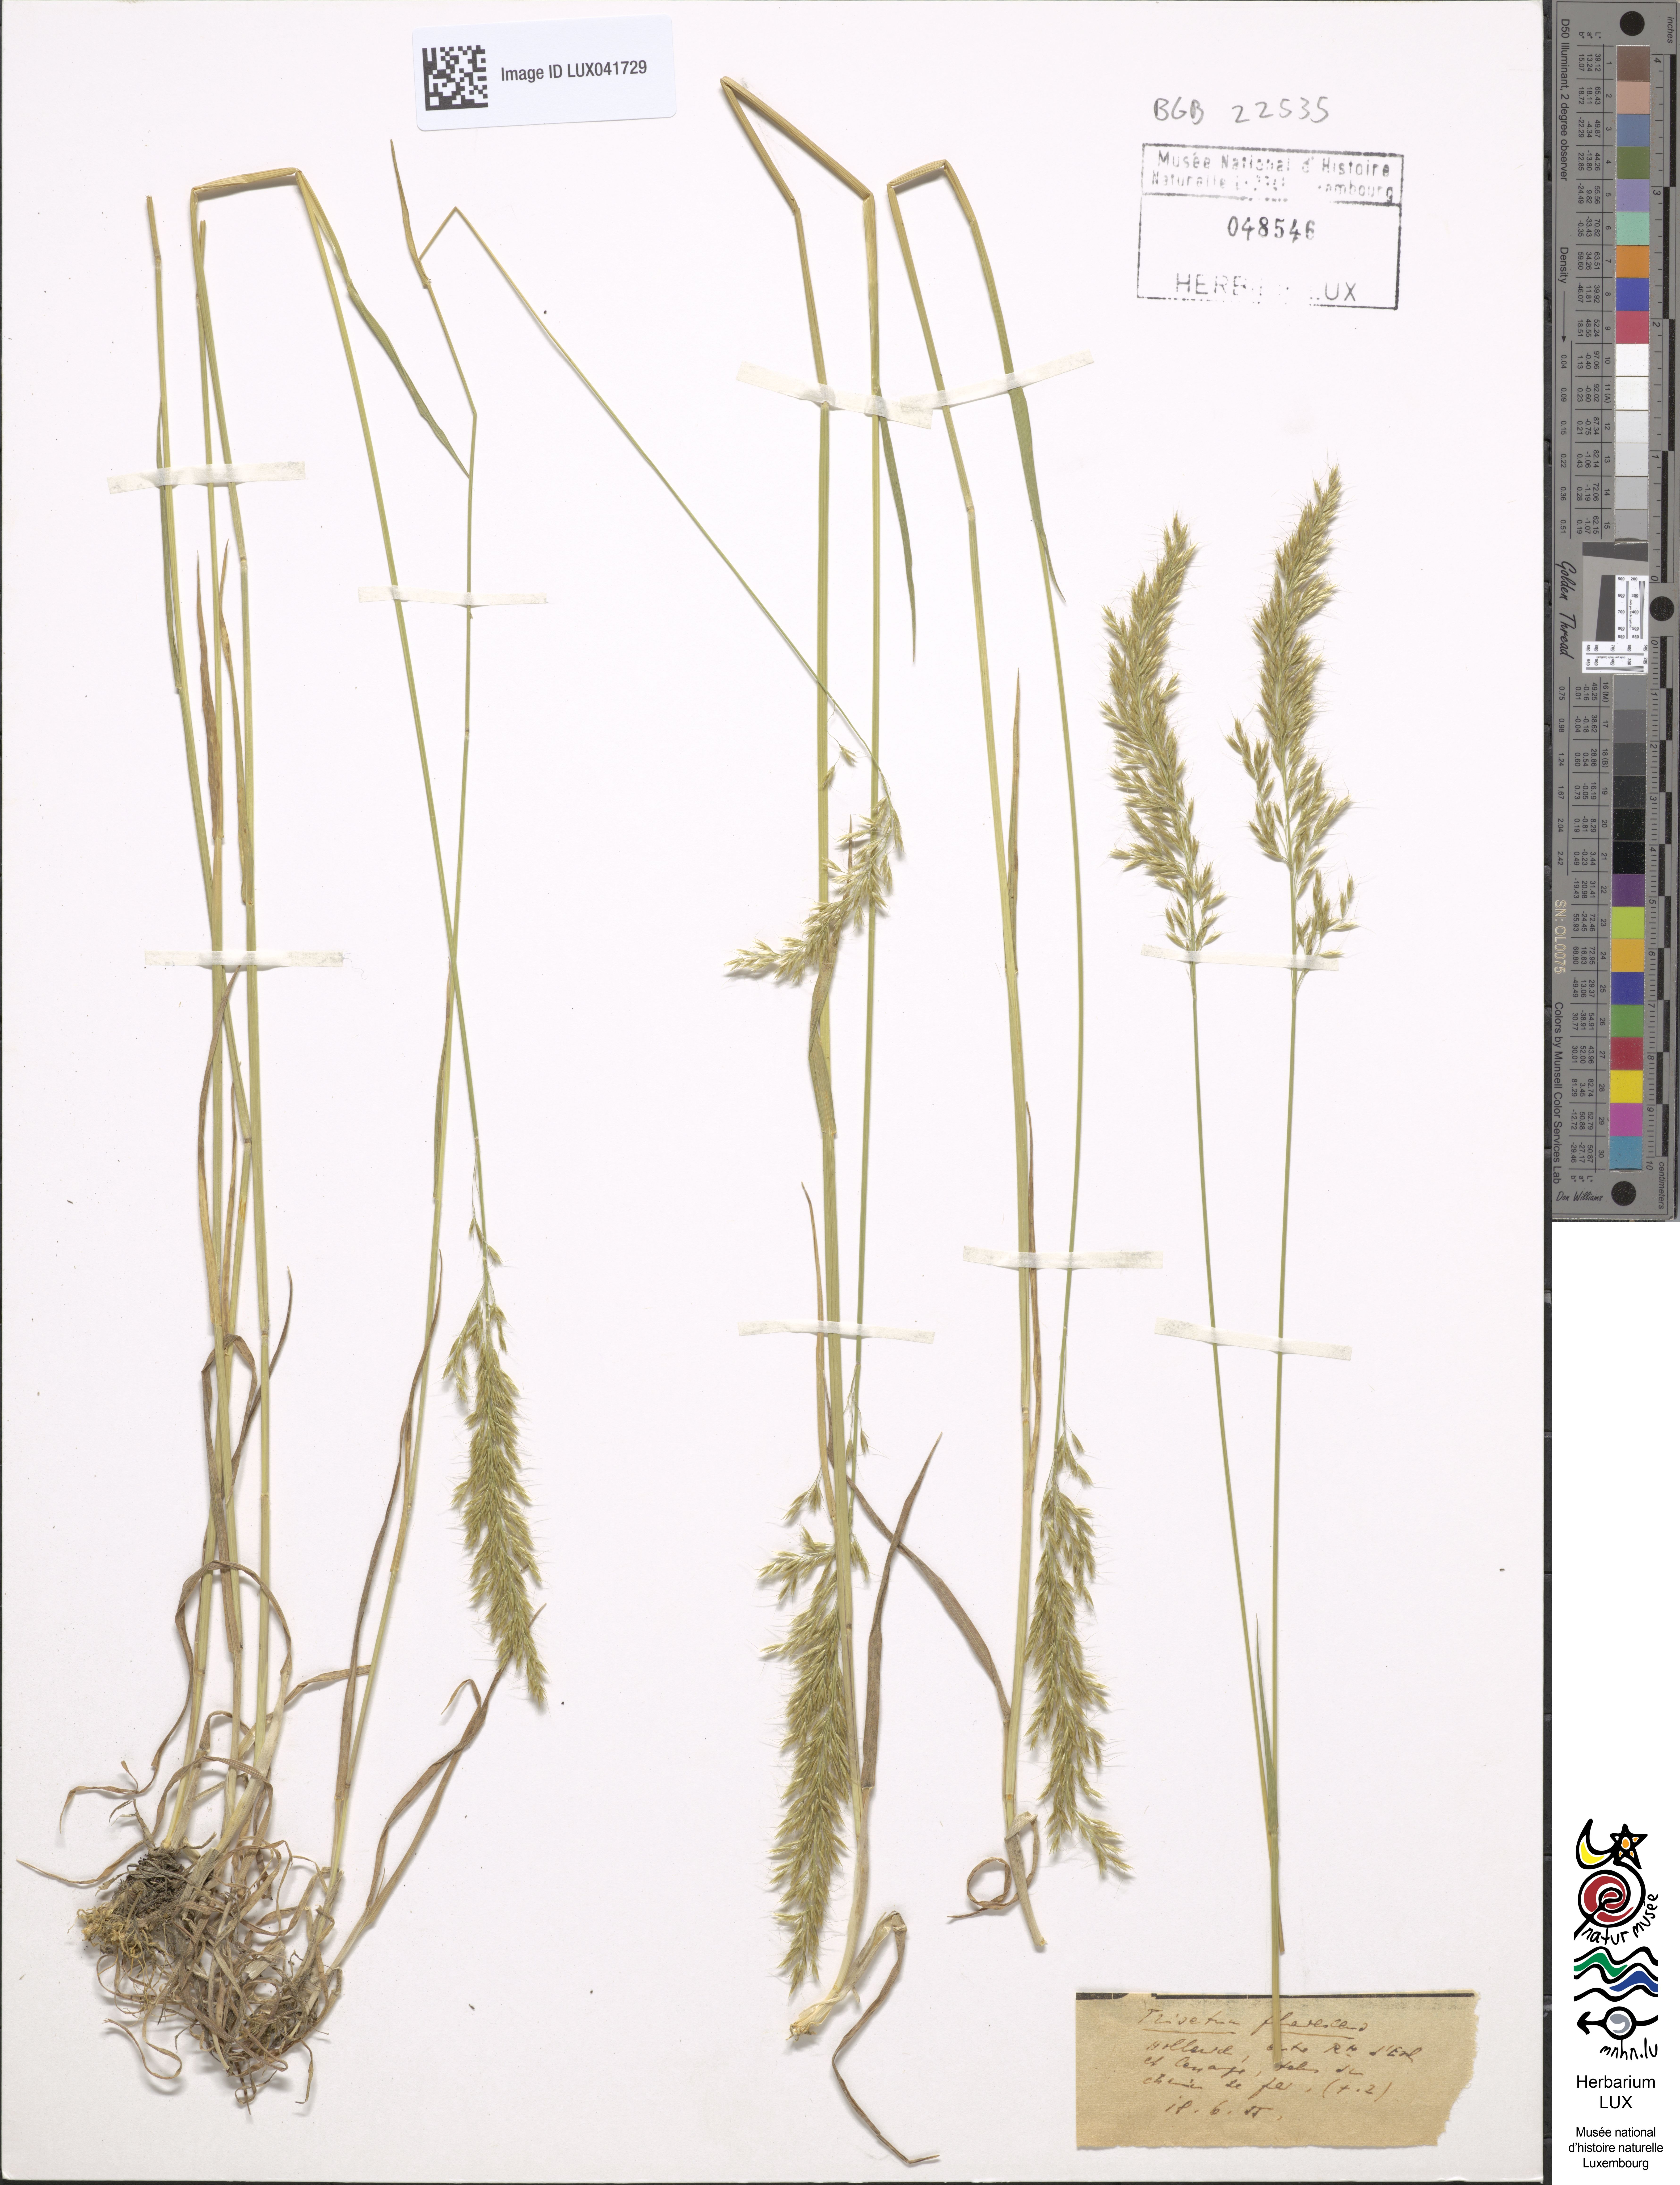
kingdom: Plantae
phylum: Tracheophyta
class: Liliopsida
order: Poales
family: Poaceae
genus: Trisetum
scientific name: Trisetum flavescens
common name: Yellow oat-grass
